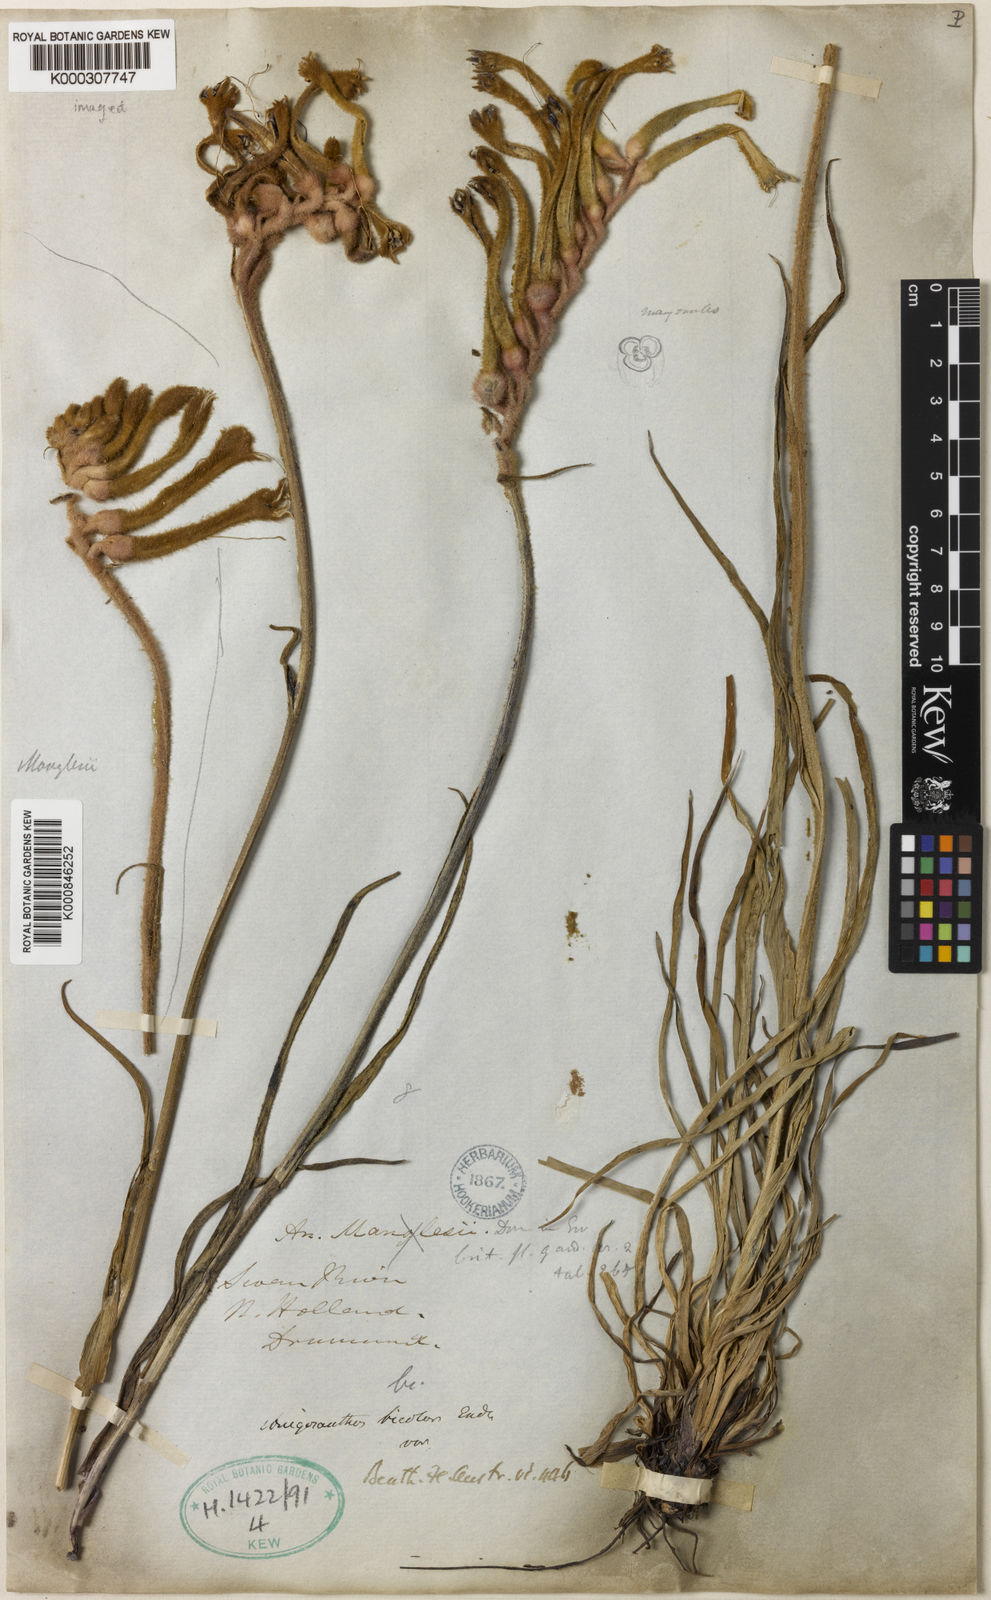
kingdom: Plantae
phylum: Tracheophyta
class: Liliopsida
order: Commelinales
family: Haemodoraceae
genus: Anigozanthos
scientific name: Anigozanthos bicolor
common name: Little kangaroo-paw
